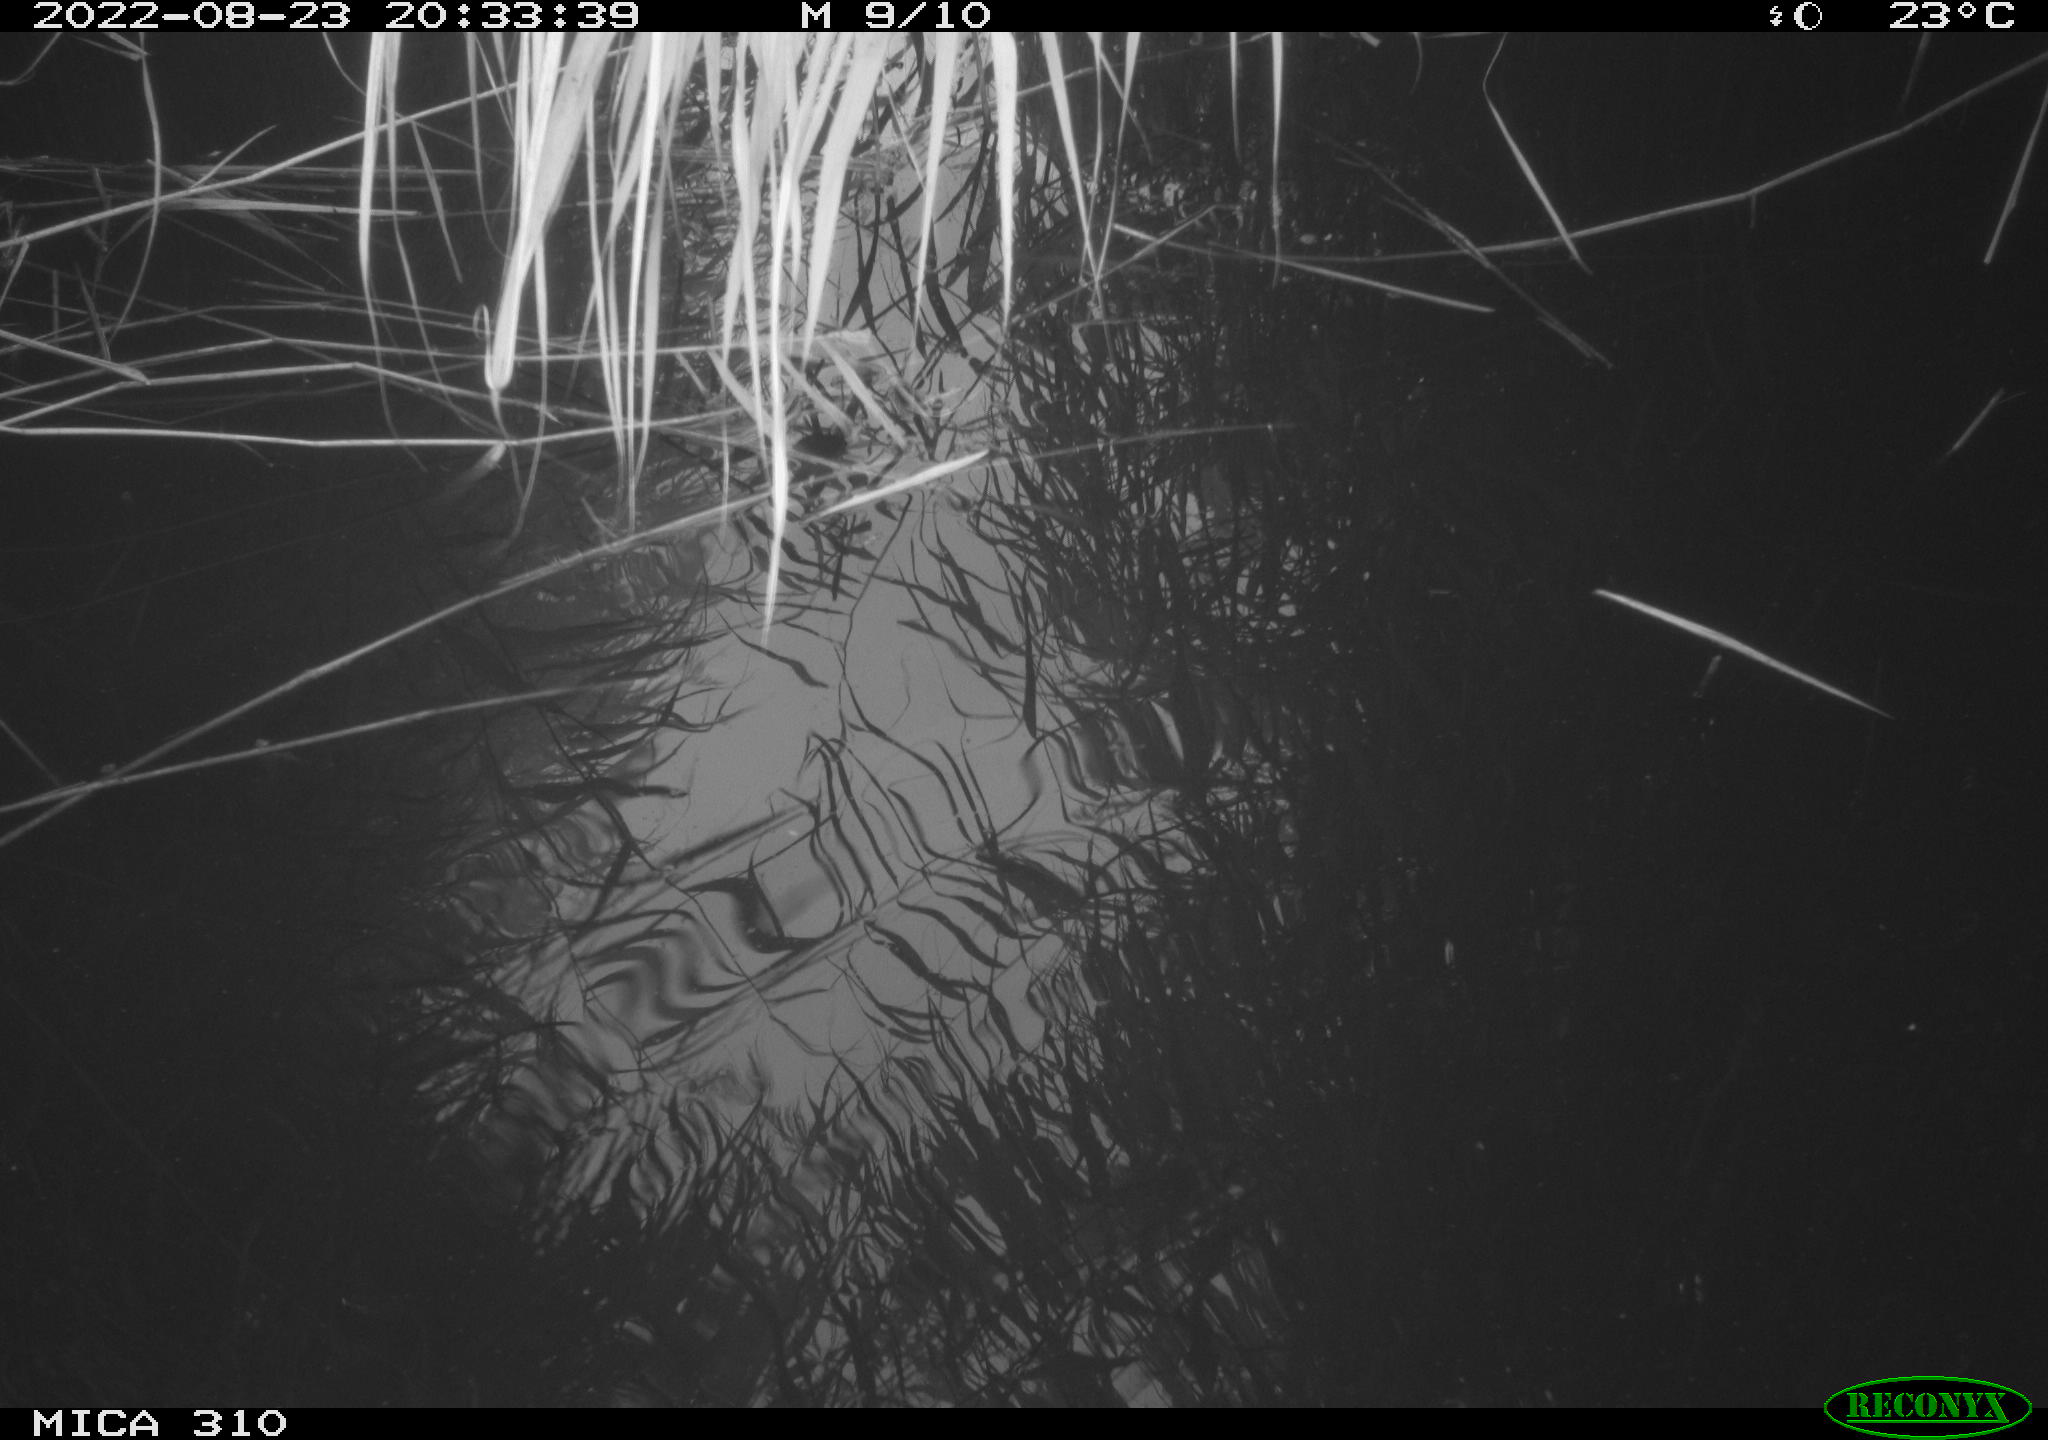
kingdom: Animalia
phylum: Chordata
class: Aves
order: Anseriformes
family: Anatidae
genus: Anas
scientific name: Anas platyrhynchos
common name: Mallard
